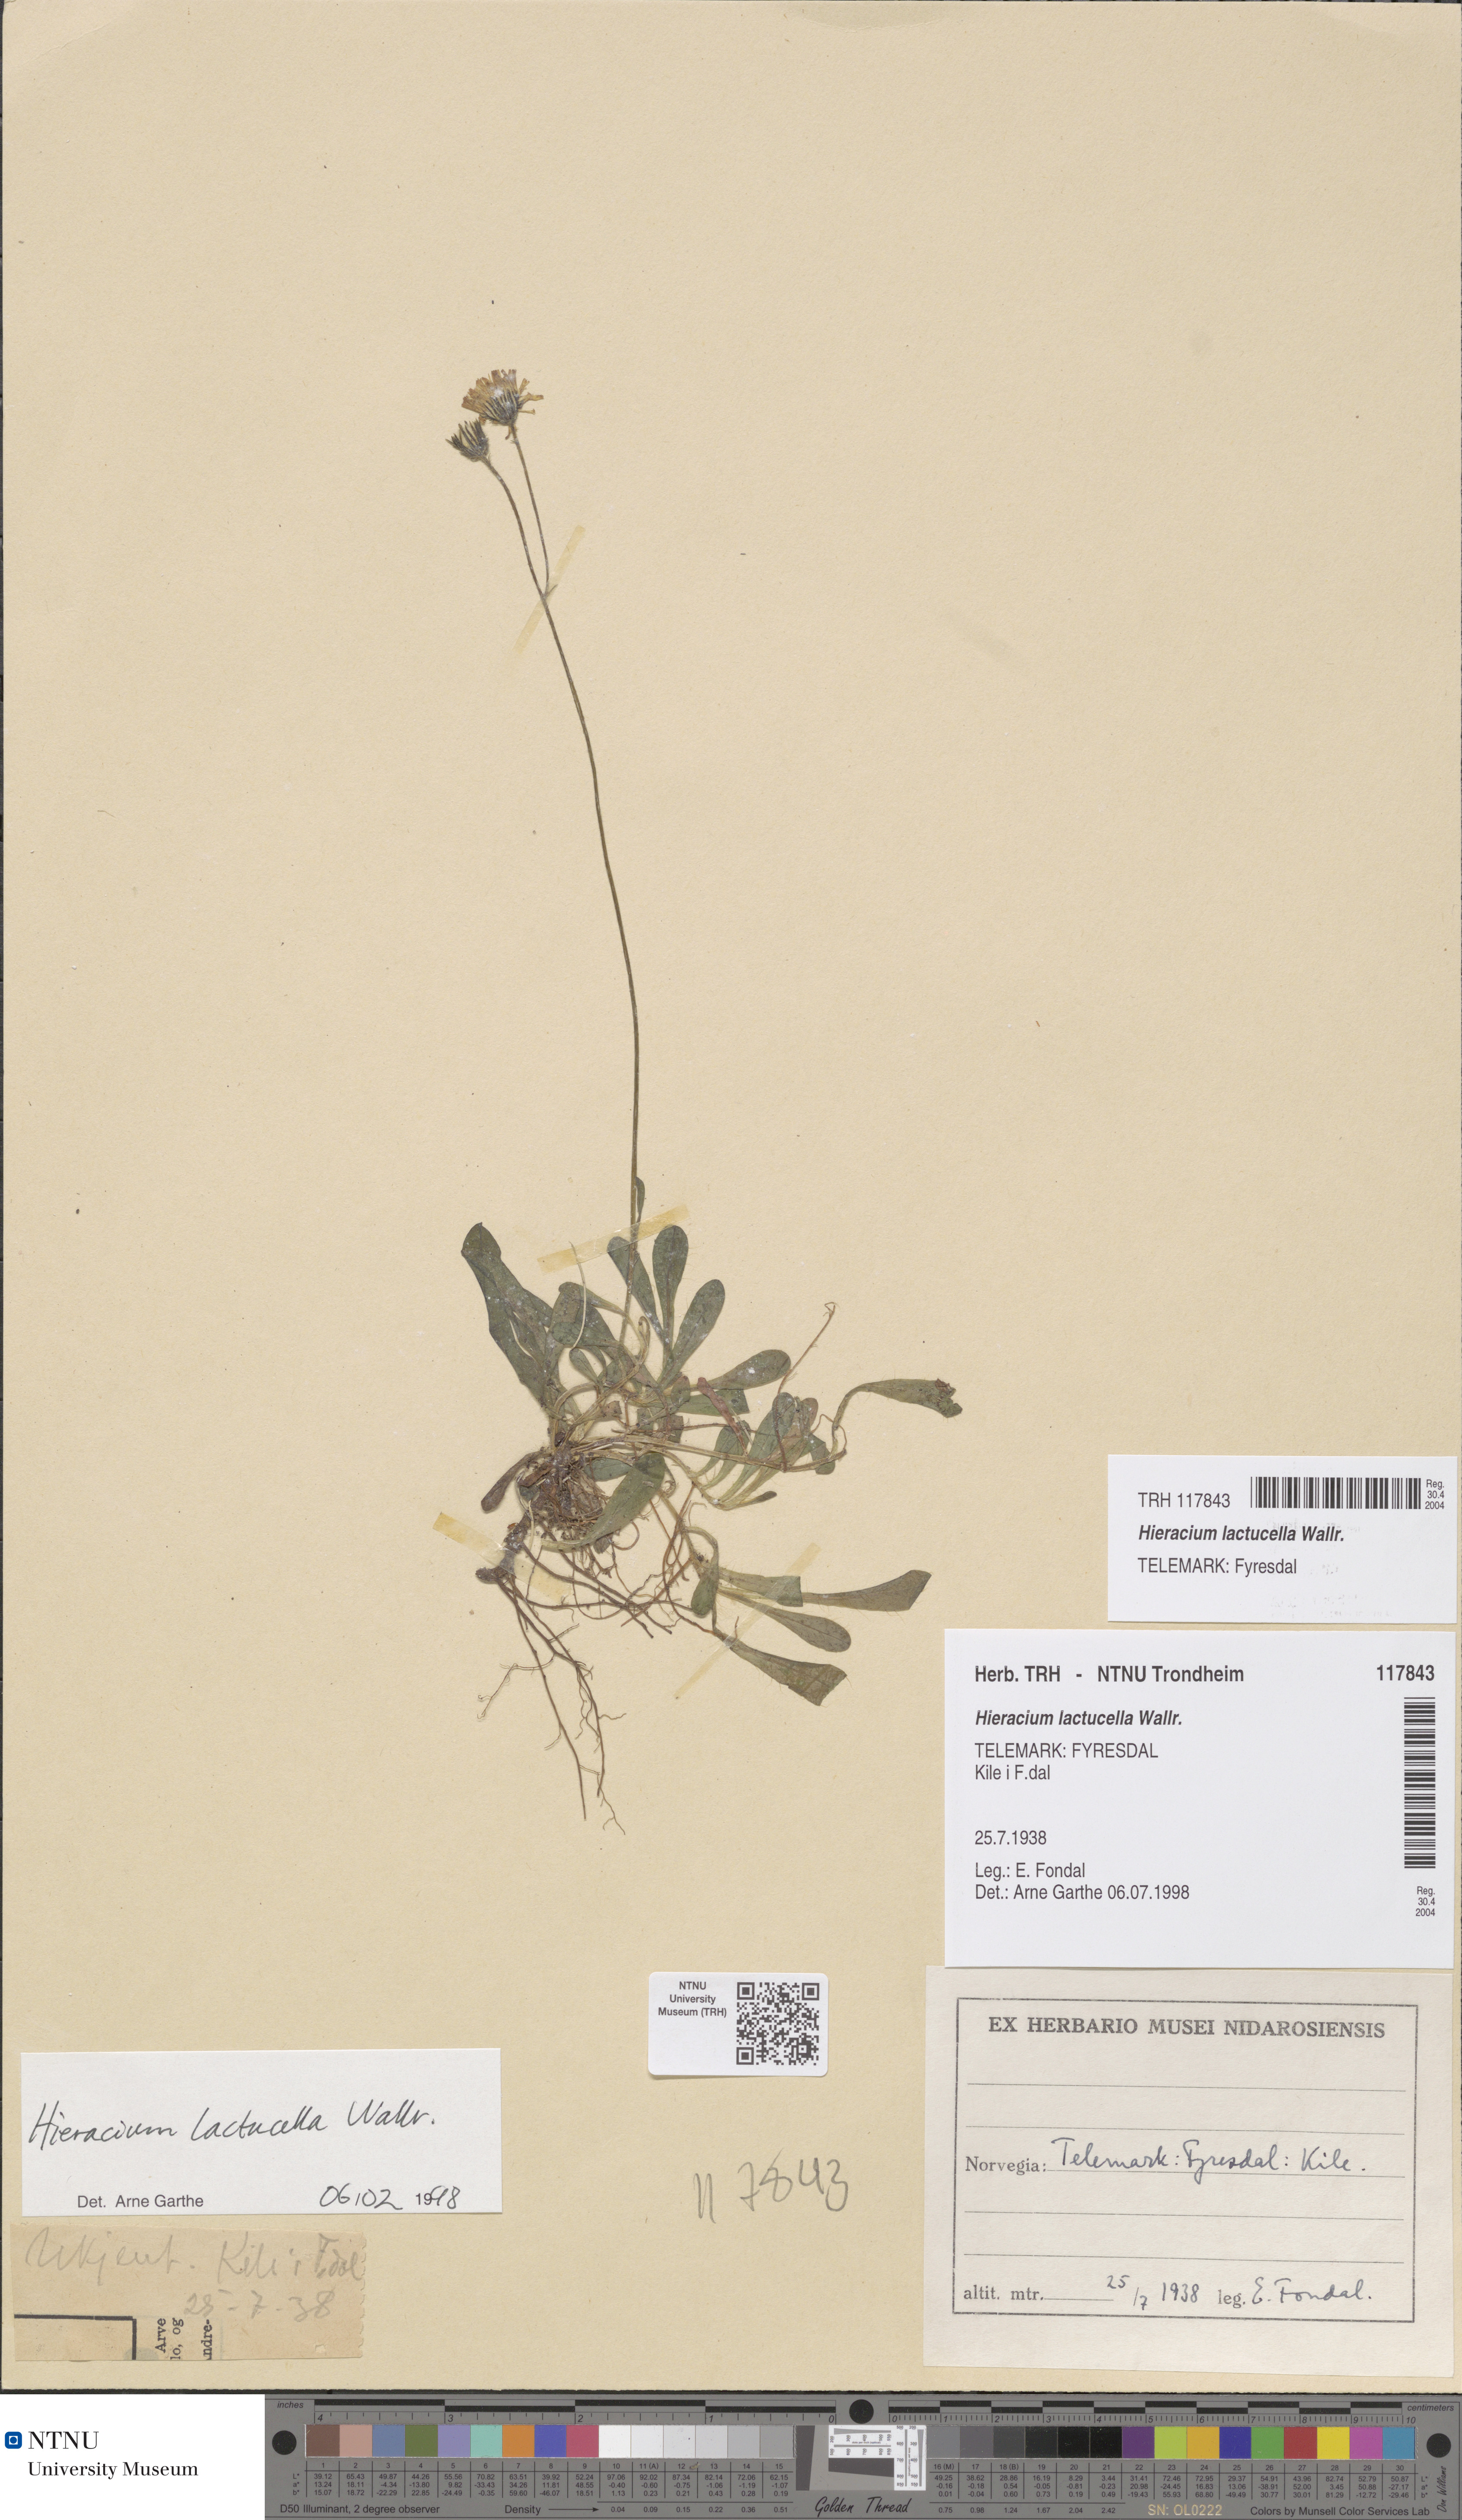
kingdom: Plantae
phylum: Tracheophyta
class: Magnoliopsida
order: Asterales
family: Asteraceae
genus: Pilosella
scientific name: Pilosella lactucella
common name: Glaucous fox-and-cubs
